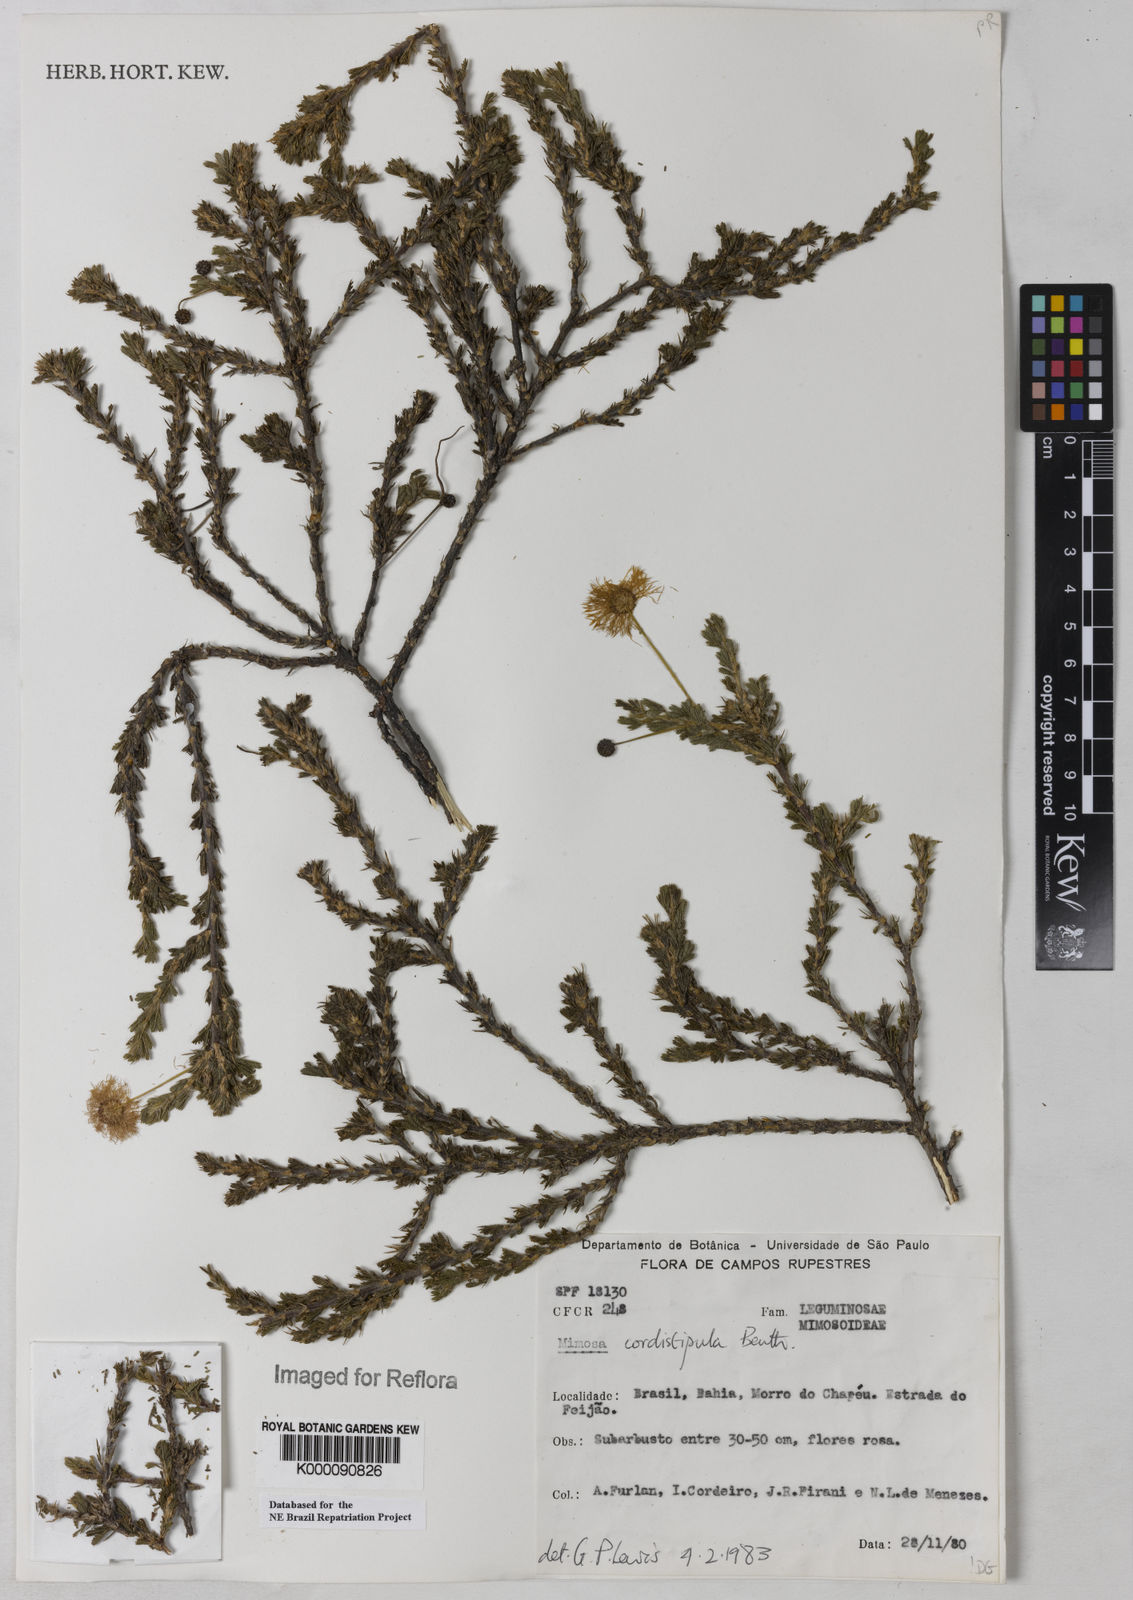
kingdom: Plantae
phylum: Tracheophyta
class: Magnoliopsida
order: Fabales
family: Fabaceae
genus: Mimosa
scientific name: Mimosa cordistipula
